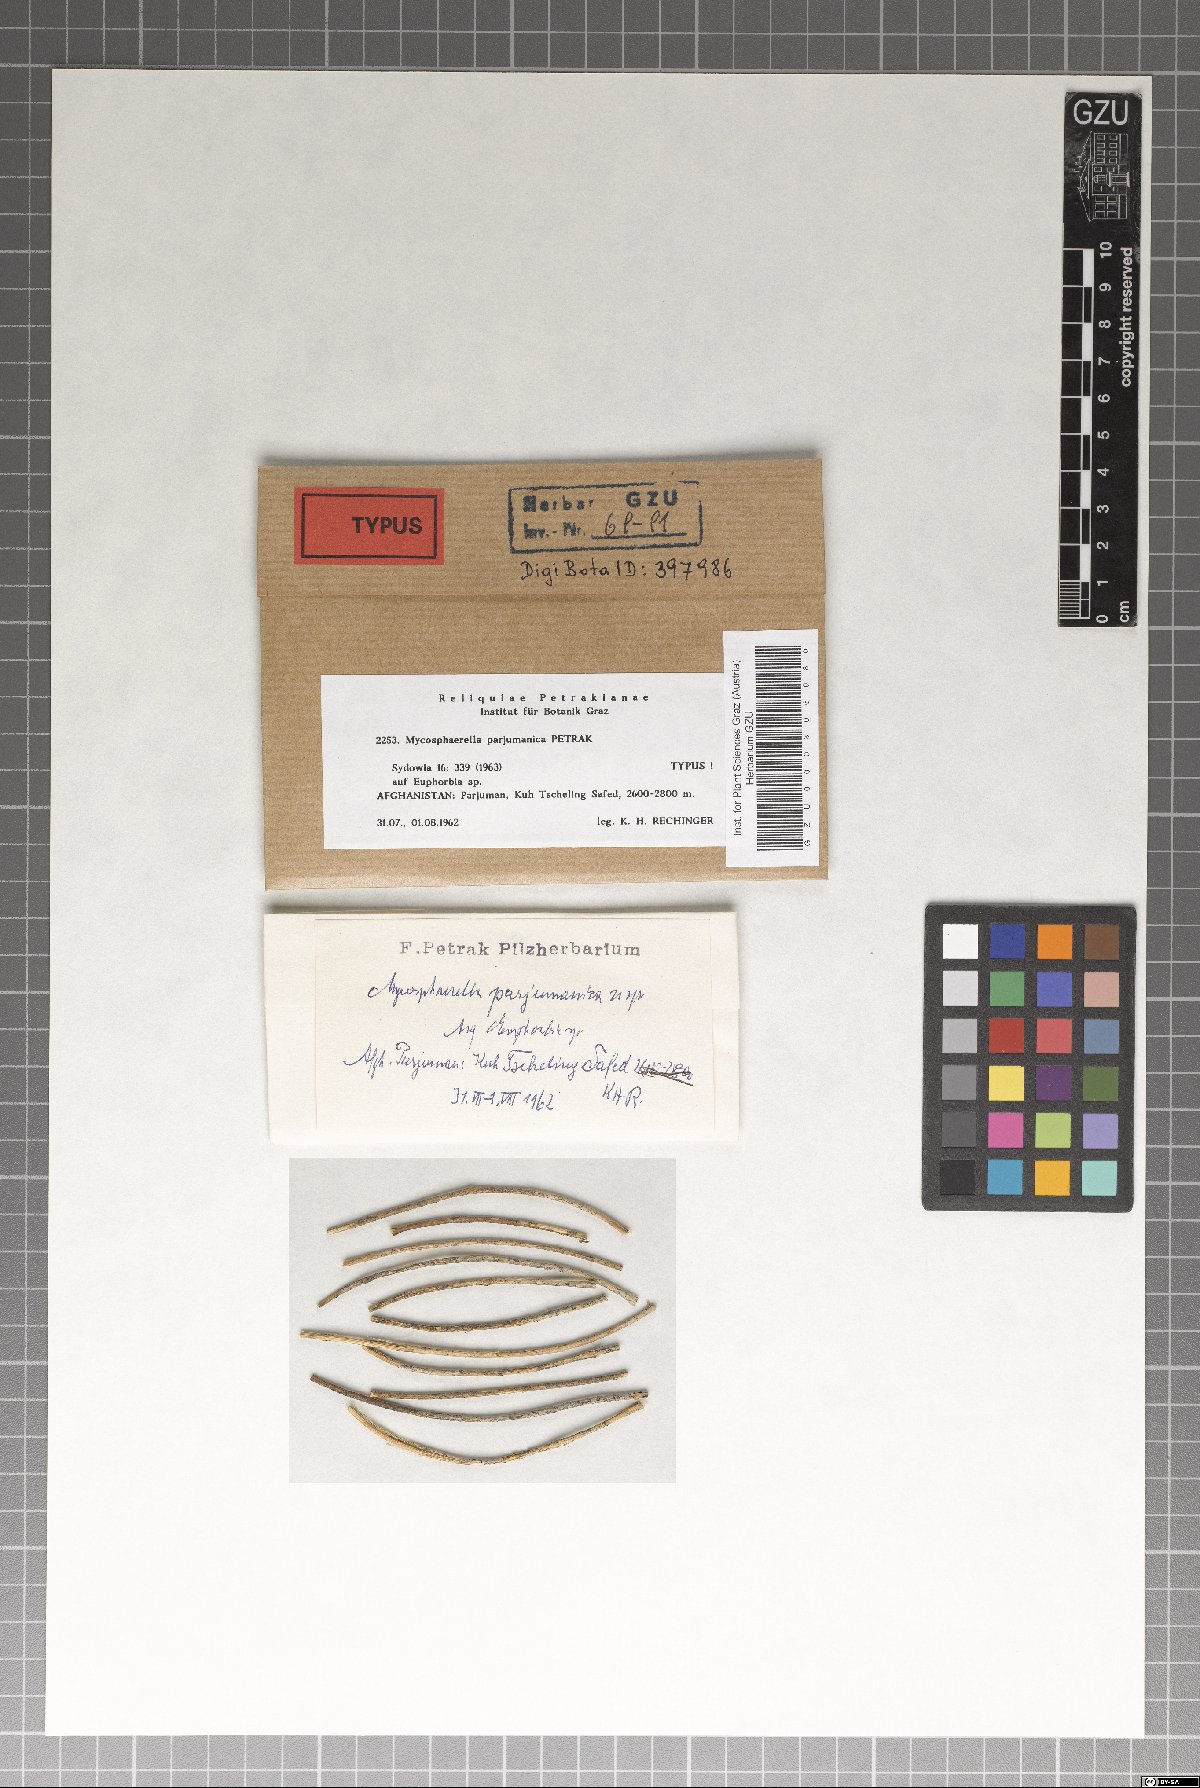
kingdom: Fungi
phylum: Ascomycota
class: Dothideomycetes
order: Mycosphaerellales
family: Mycosphaerellaceae
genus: Mycosphaerella
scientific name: Mycosphaerella parjumanica
